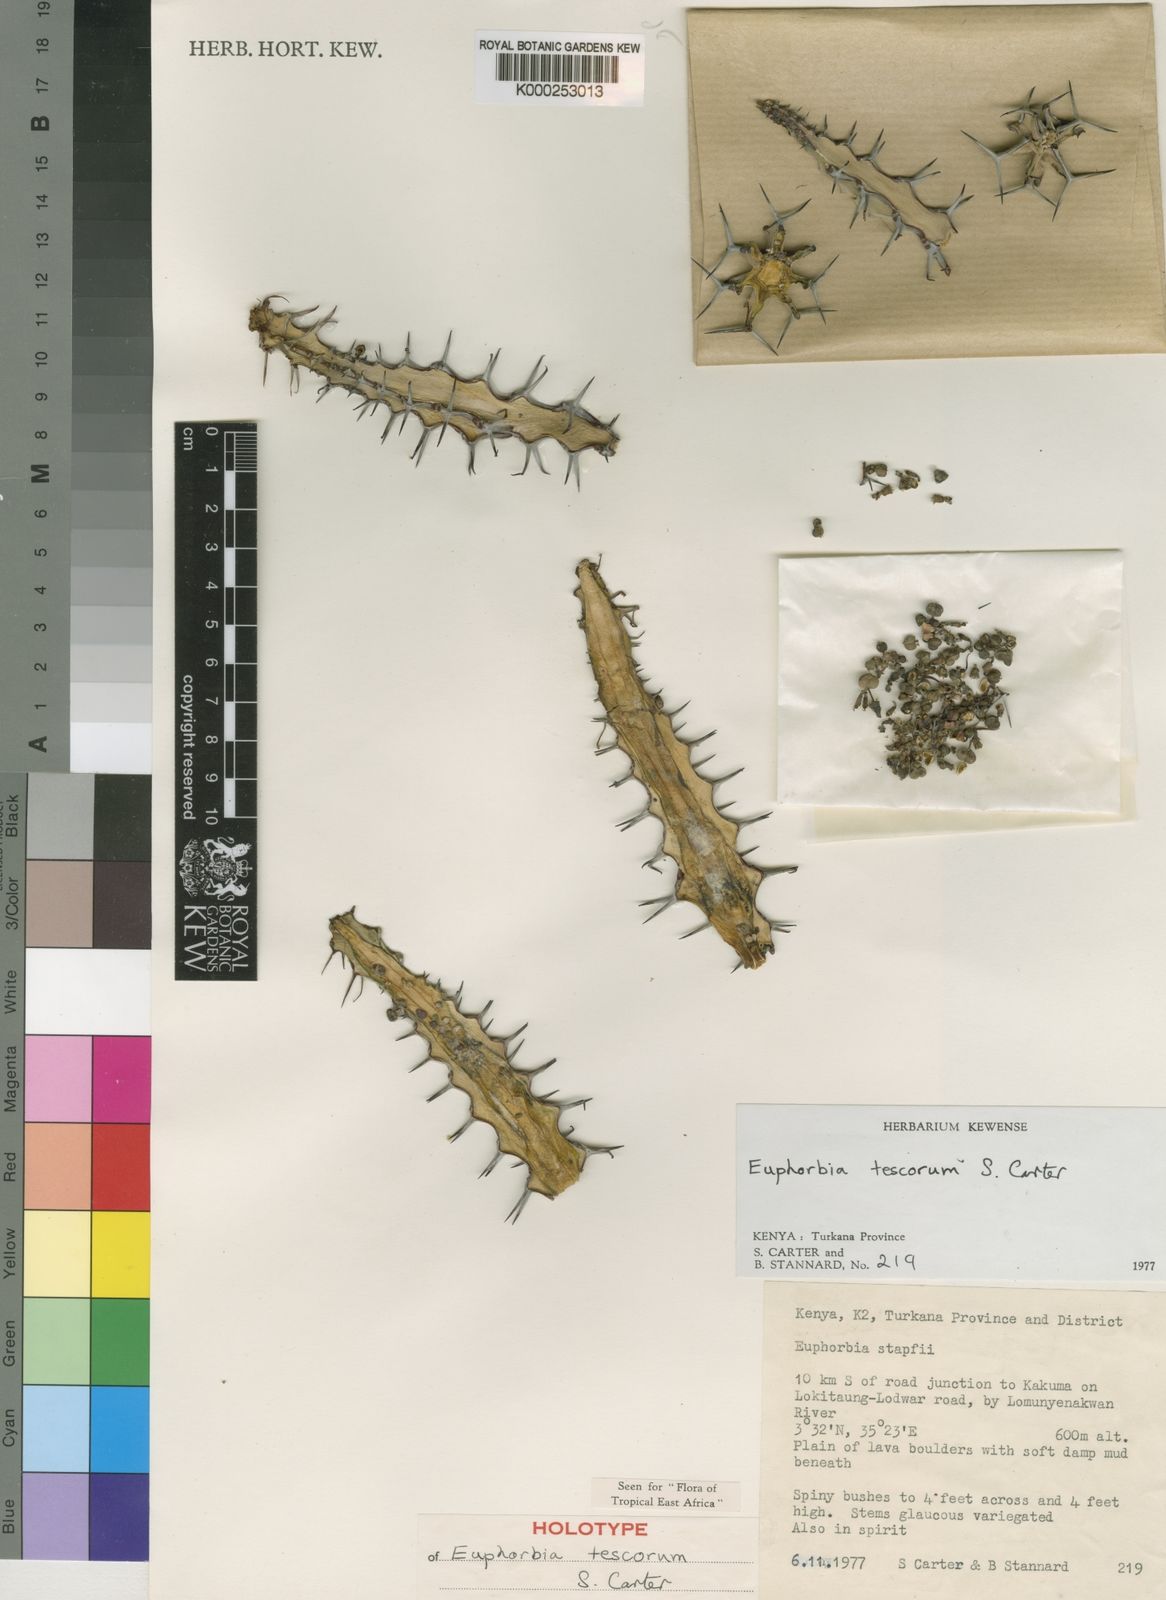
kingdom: Plantae
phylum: Tracheophyta
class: Magnoliopsida
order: Malpighiales
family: Euphorbiaceae
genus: Euphorbia
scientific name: Euphorbia tescorum
